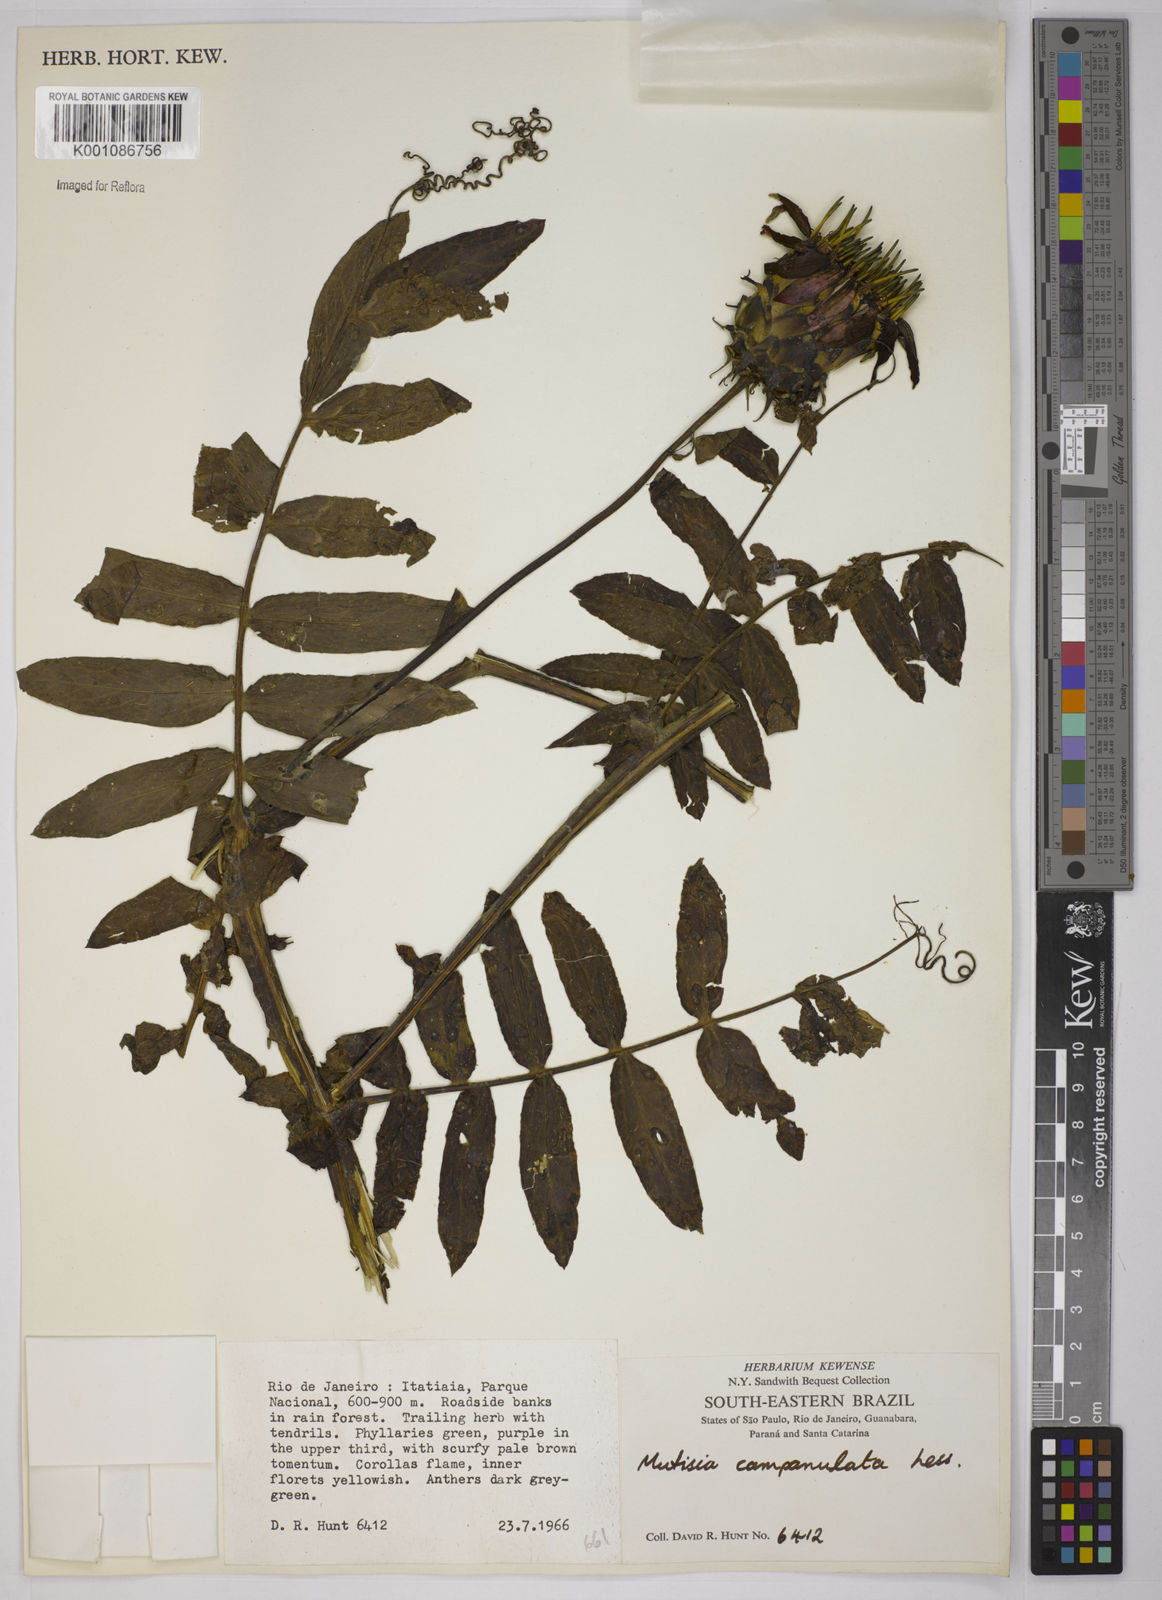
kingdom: Plantae
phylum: Tracheophyta
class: Magnoliopsida
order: Asterales
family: Asteraceae
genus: Mutisia
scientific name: Mutisia campanulata
